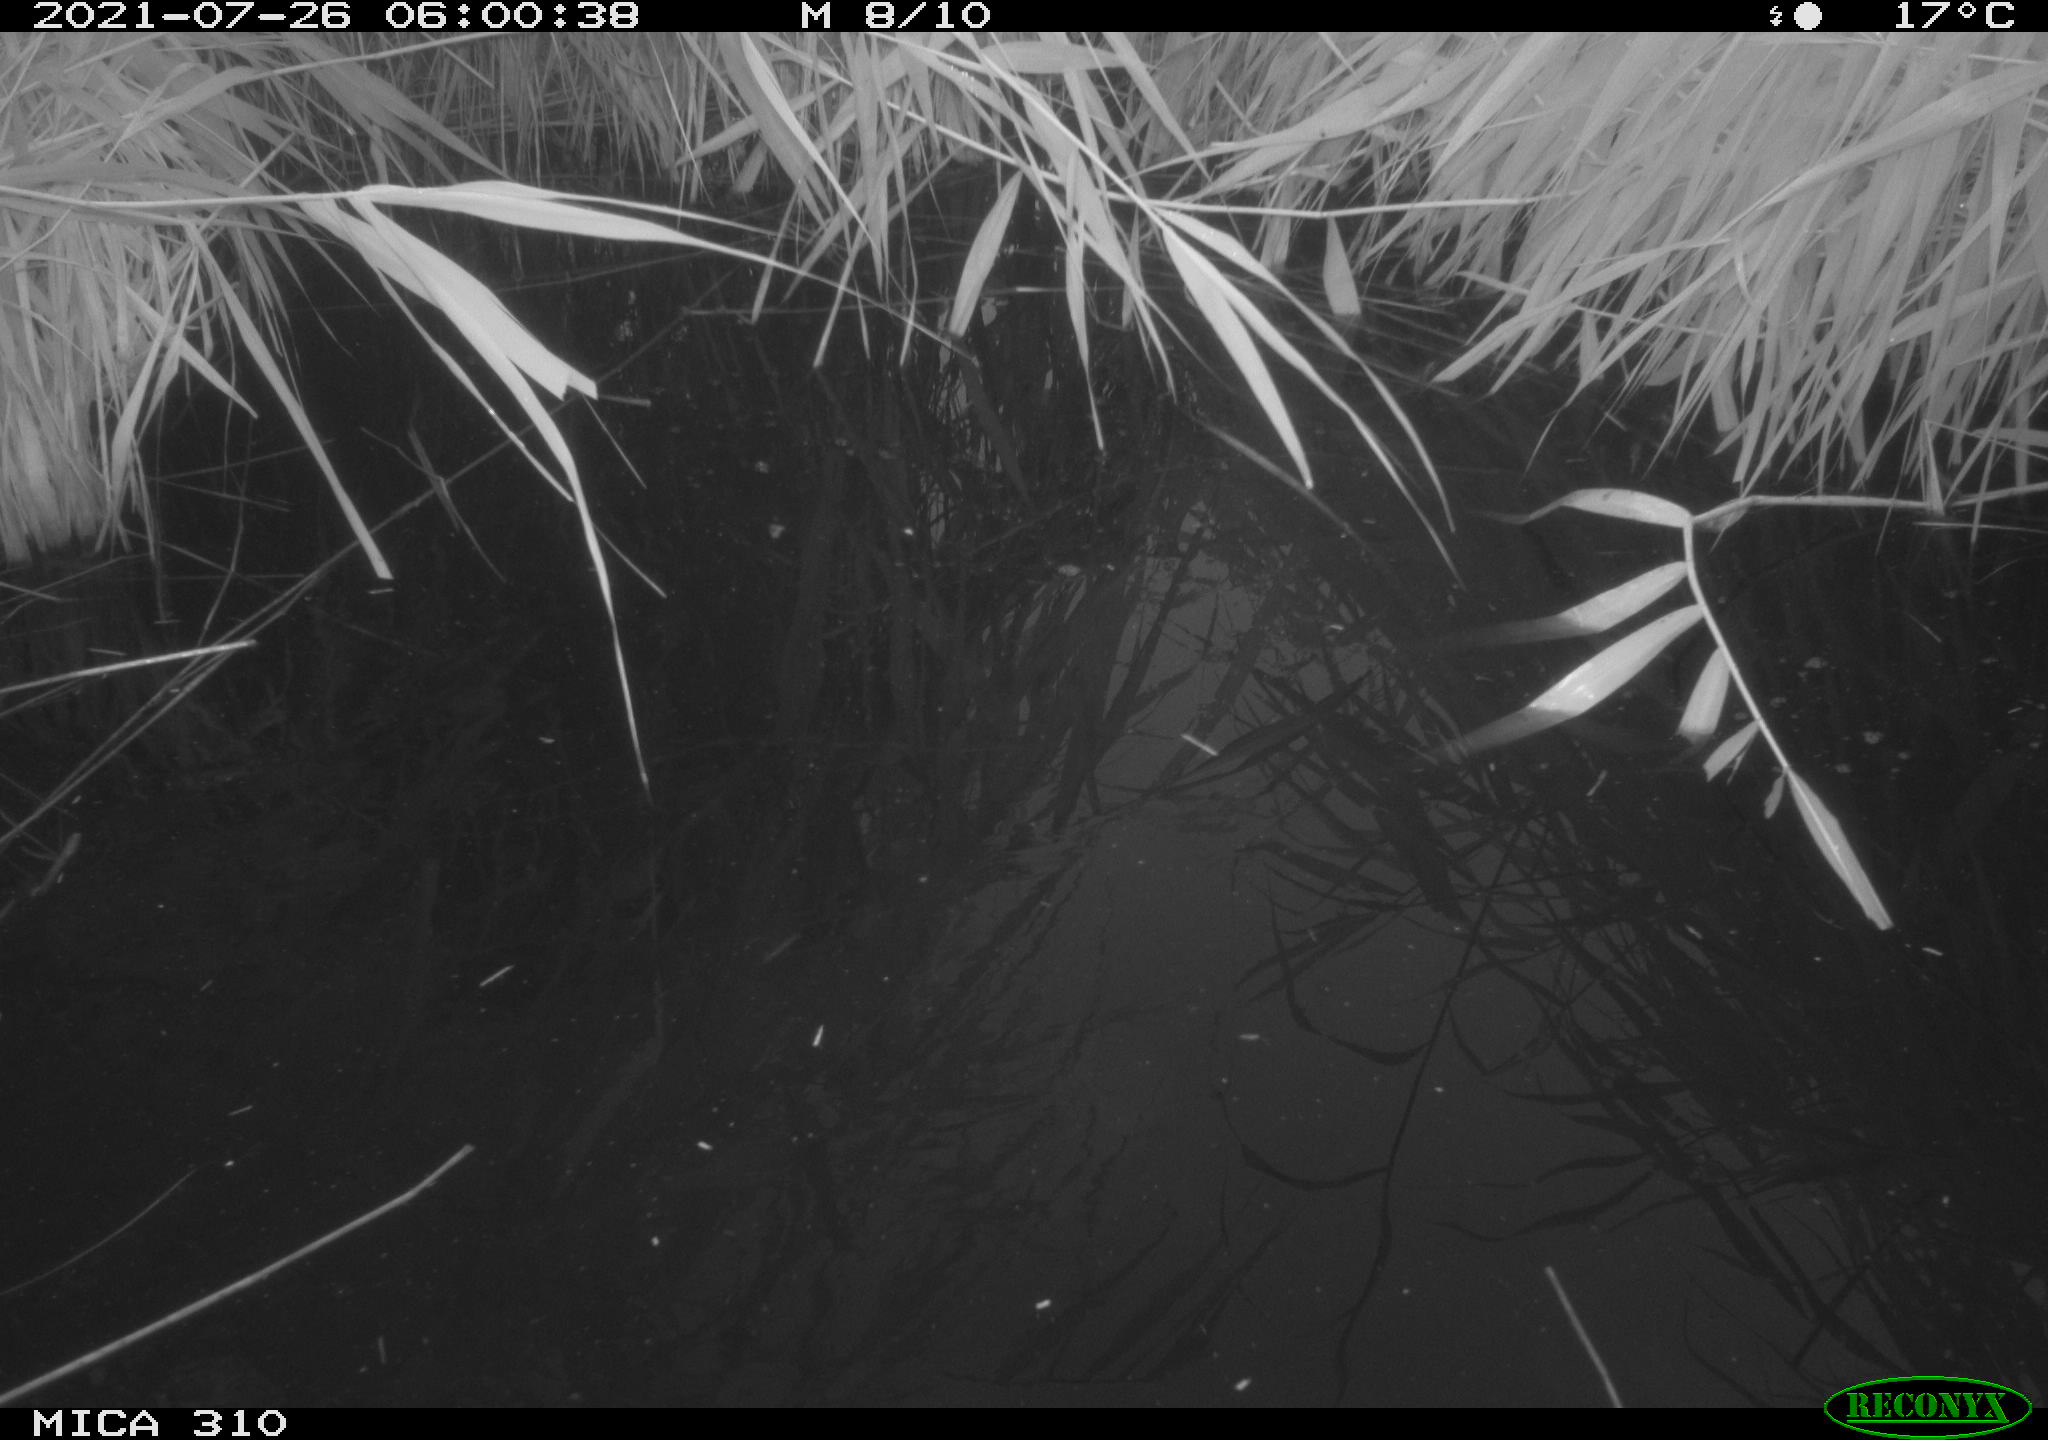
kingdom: Animalia
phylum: Chordata
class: Aves
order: Anseriformes
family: Anatidae
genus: Anas
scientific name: Anas platyrhynchos
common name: Mallard
